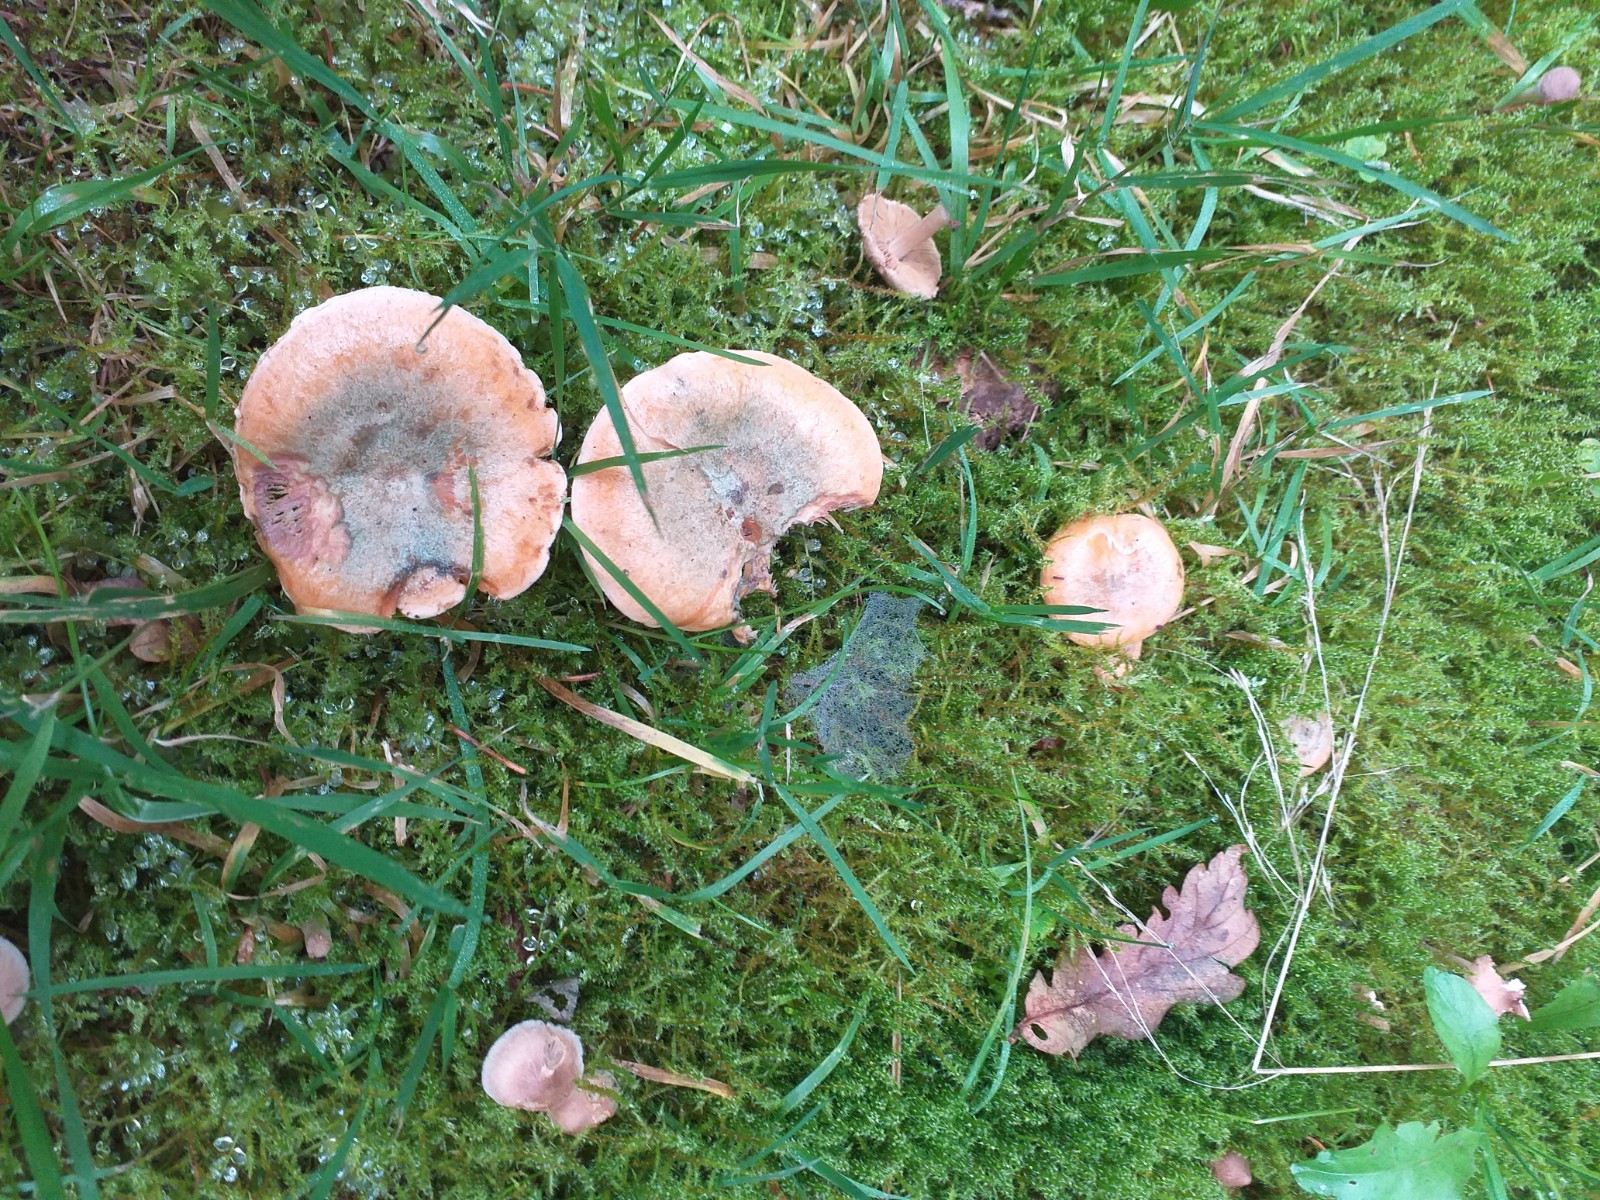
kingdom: Fungi
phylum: Basidiomycota
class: Agaricomycetes
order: Russulales
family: Russulaceae
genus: Lactarius
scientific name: Lactarius
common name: mælkehat
